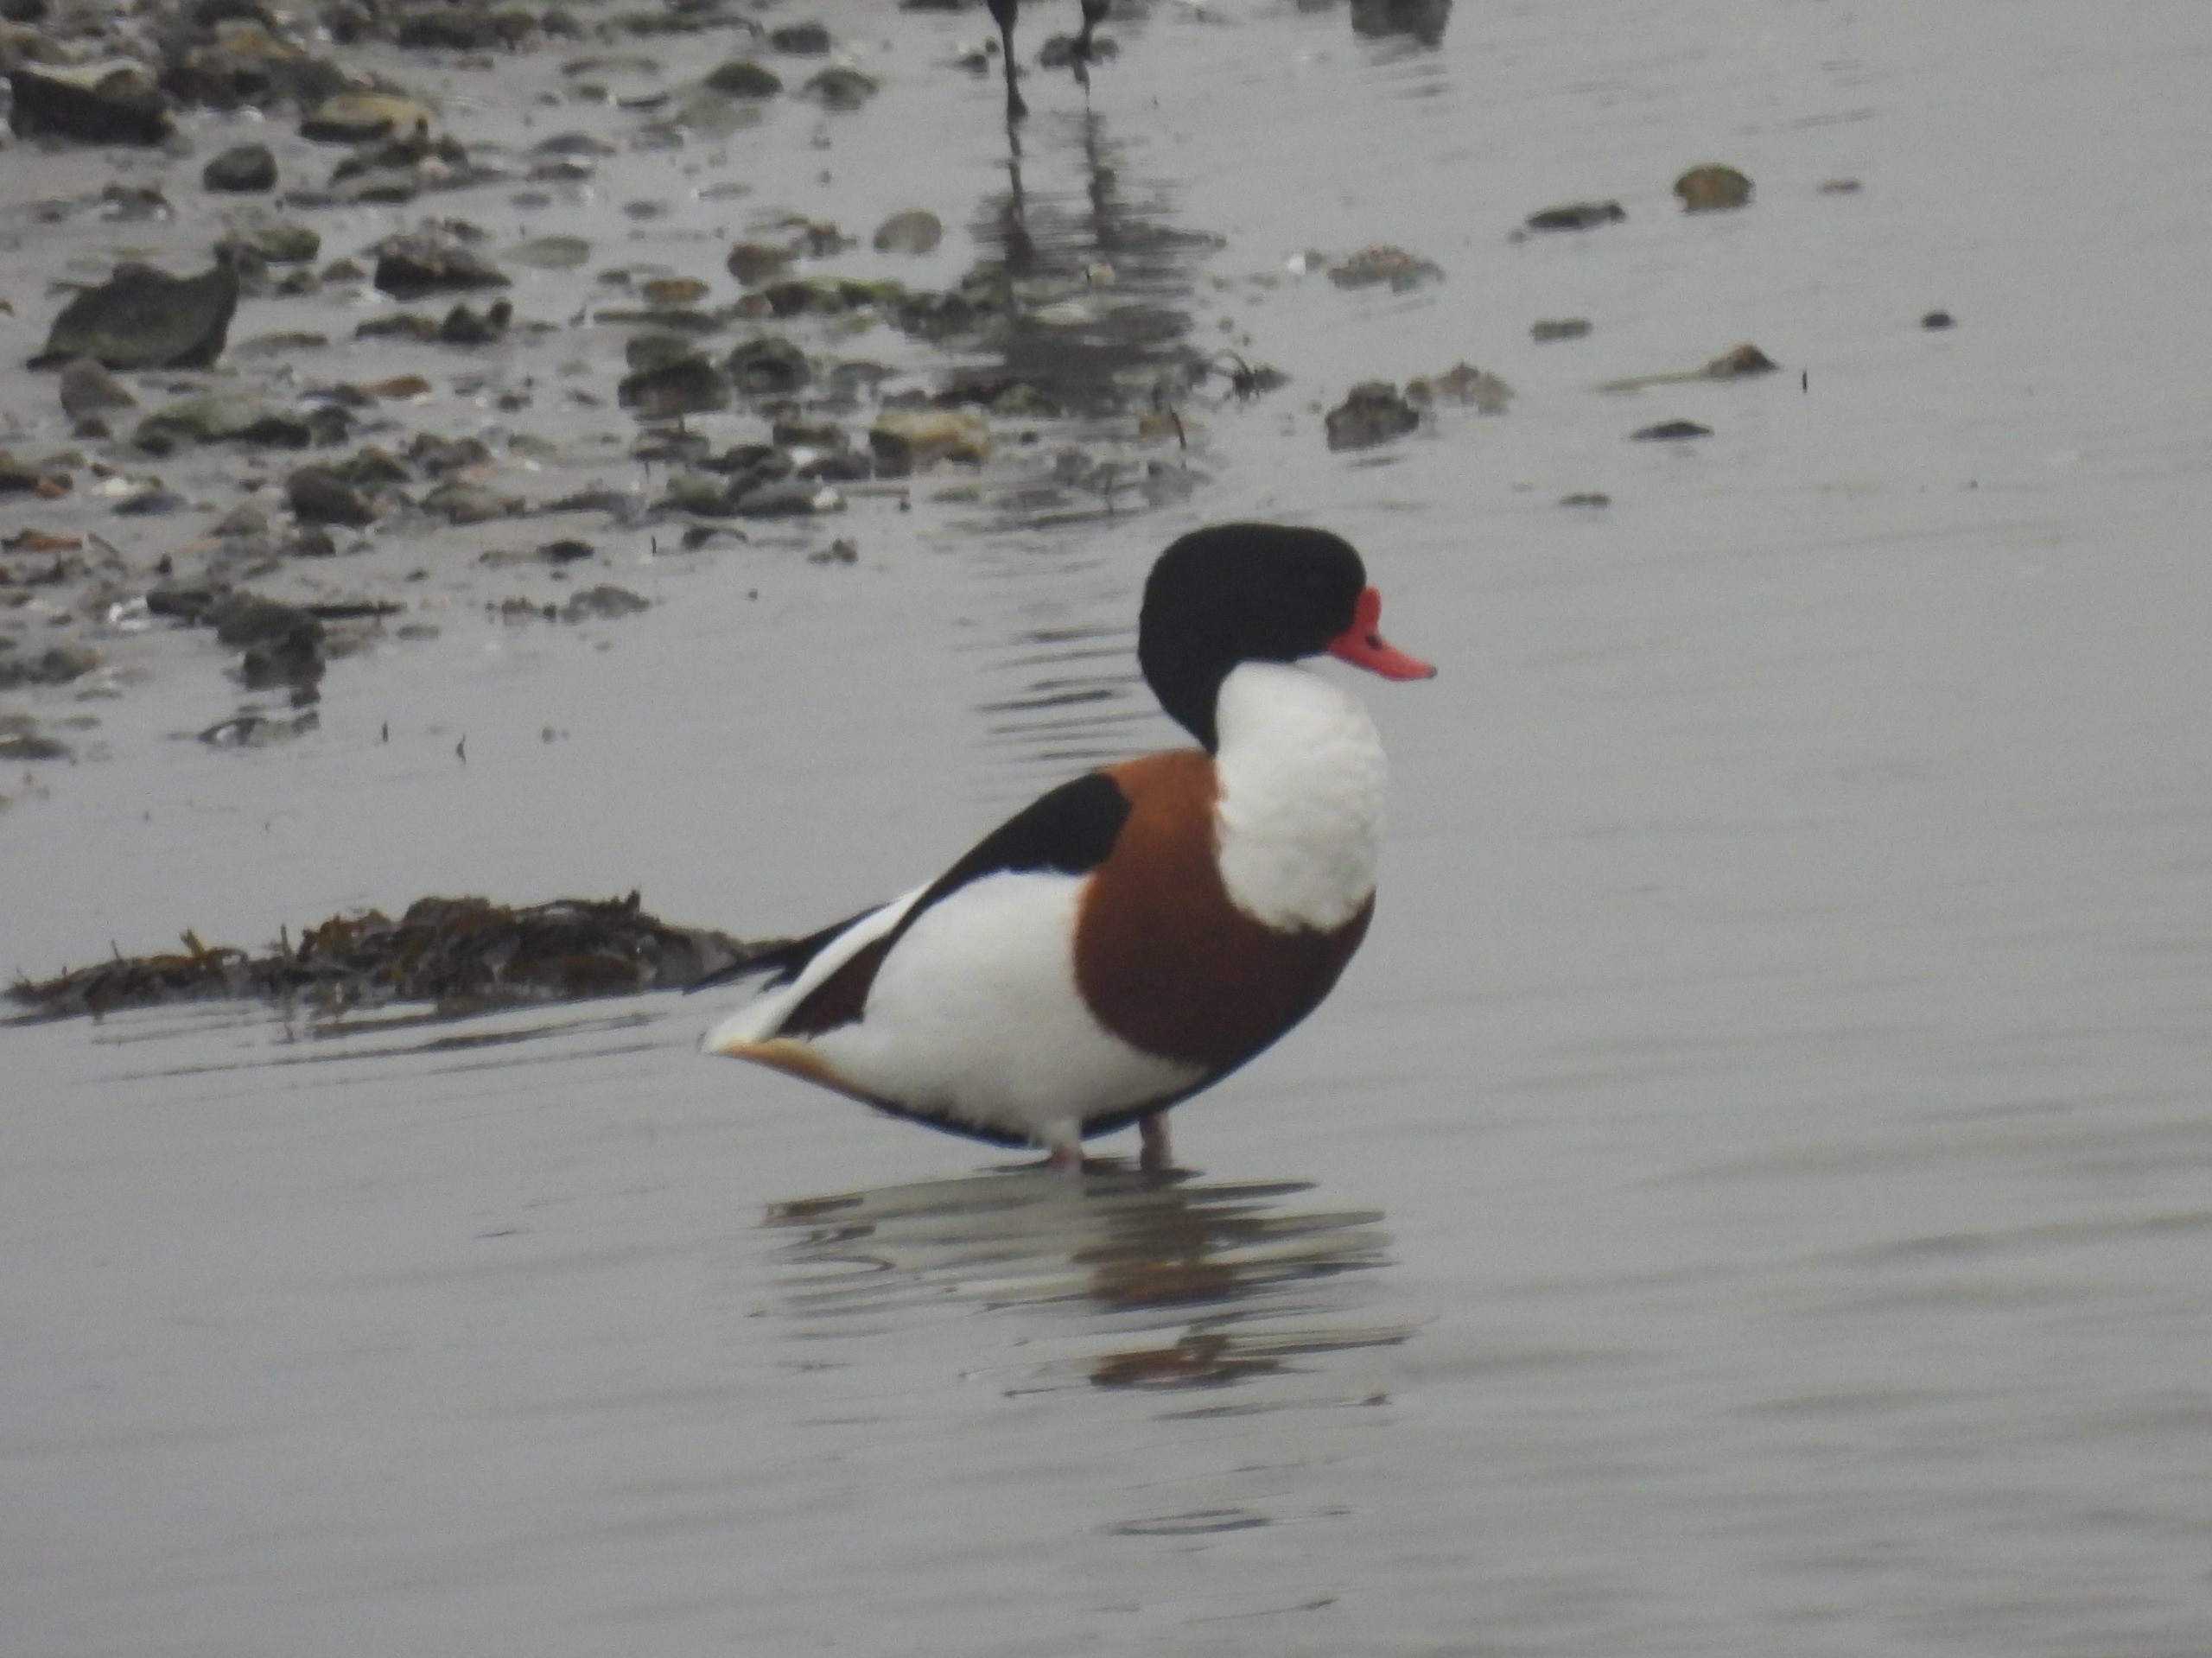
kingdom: Animalia
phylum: Chordata
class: Aves
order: Anseriformes
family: Anatidae
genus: Tadorna
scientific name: Tadorna tadorna
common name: Gravand
